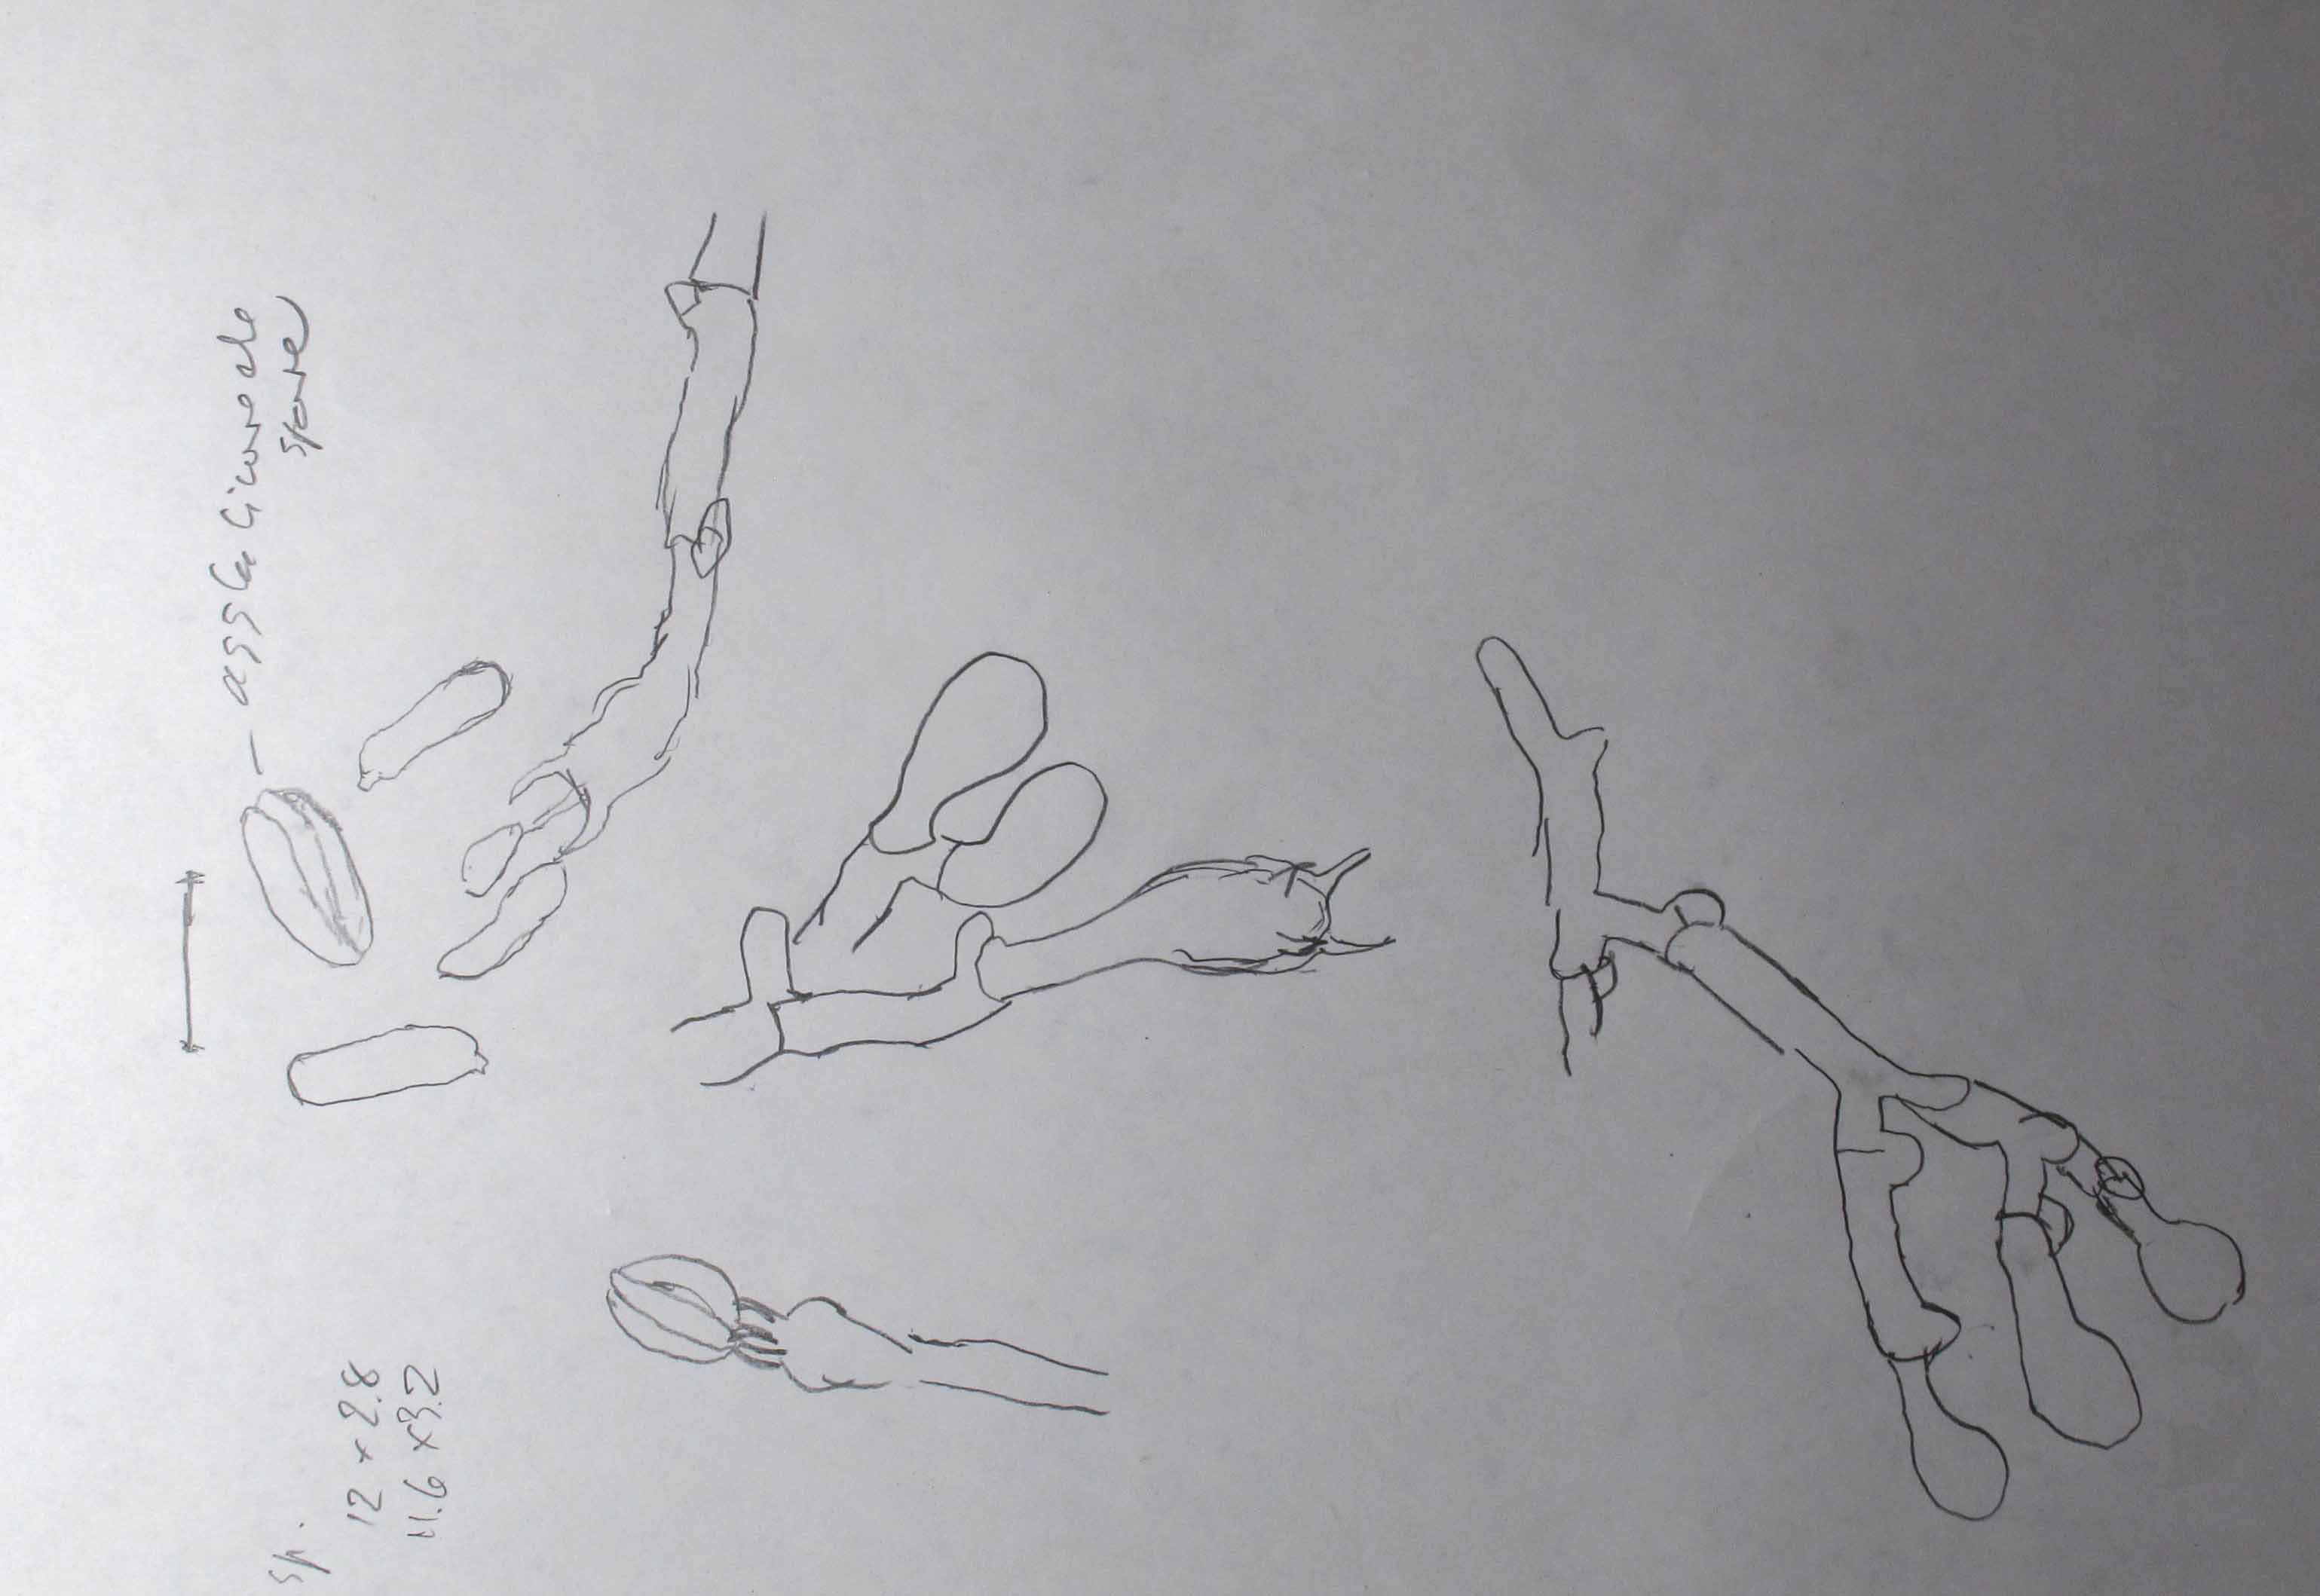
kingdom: Fungi
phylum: Basidiomycota
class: Agaricomycetes
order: Atheliales
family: Atheliaceae
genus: Athelopsis
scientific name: Athelopsis glaucina
